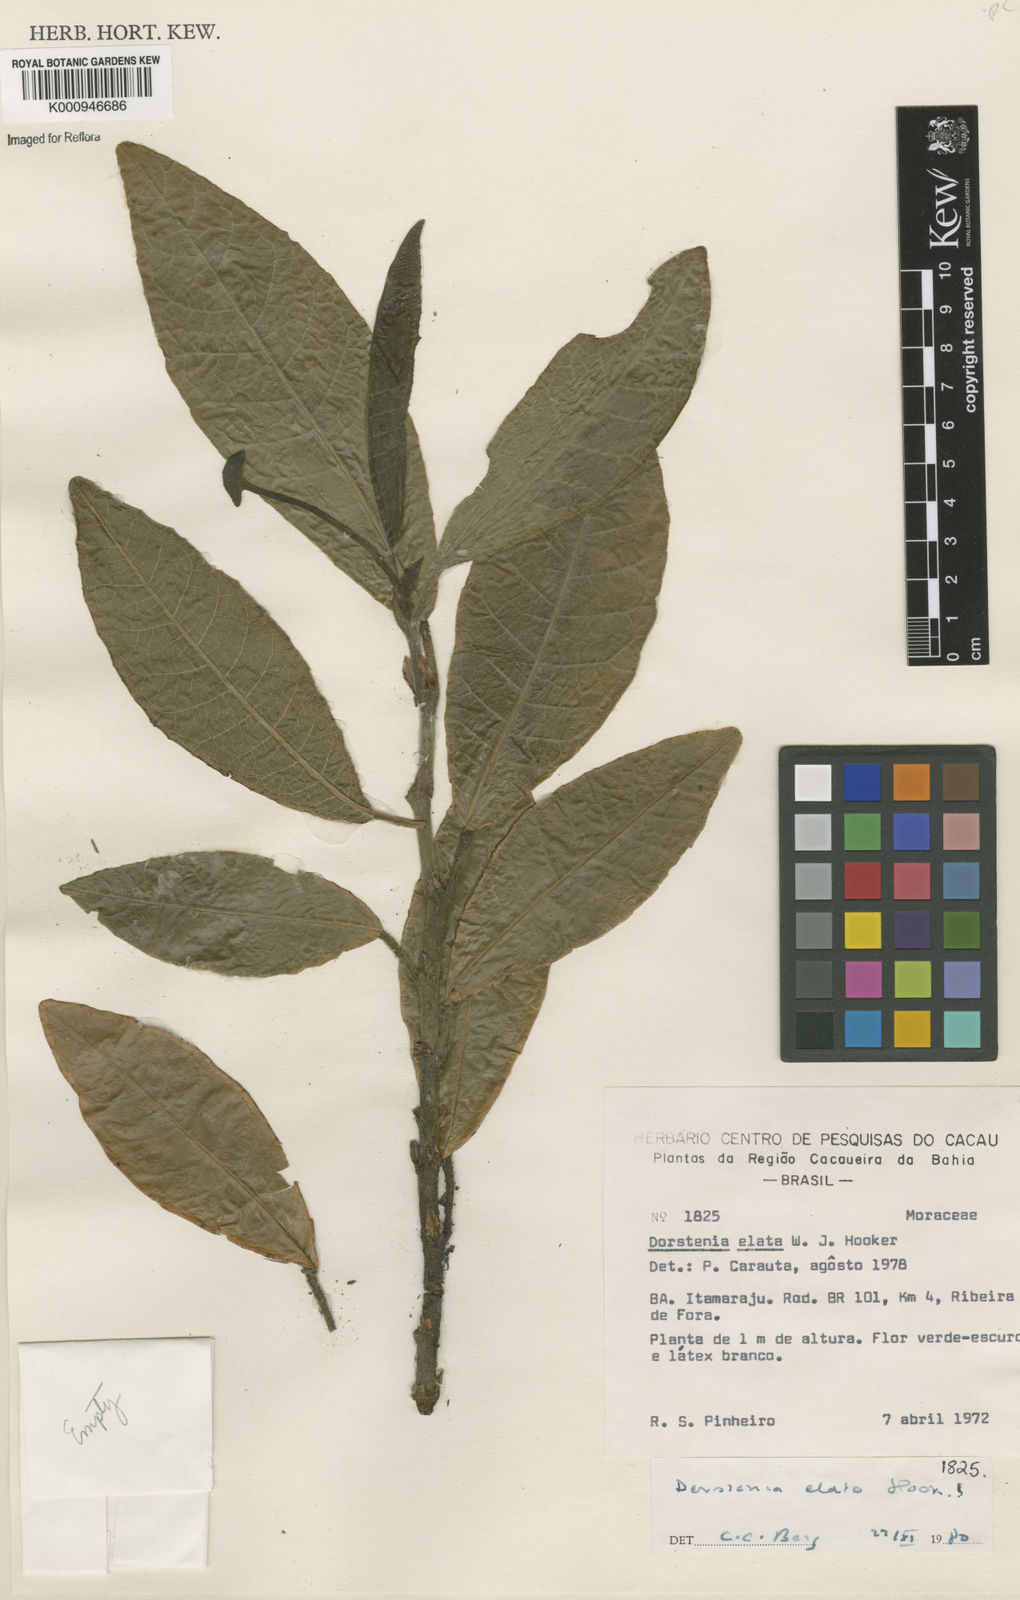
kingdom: Plantae
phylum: Tracheophyta
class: Magnoliopsida
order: Rosales
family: Moraceae
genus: Dorstenia
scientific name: Dorstenia
